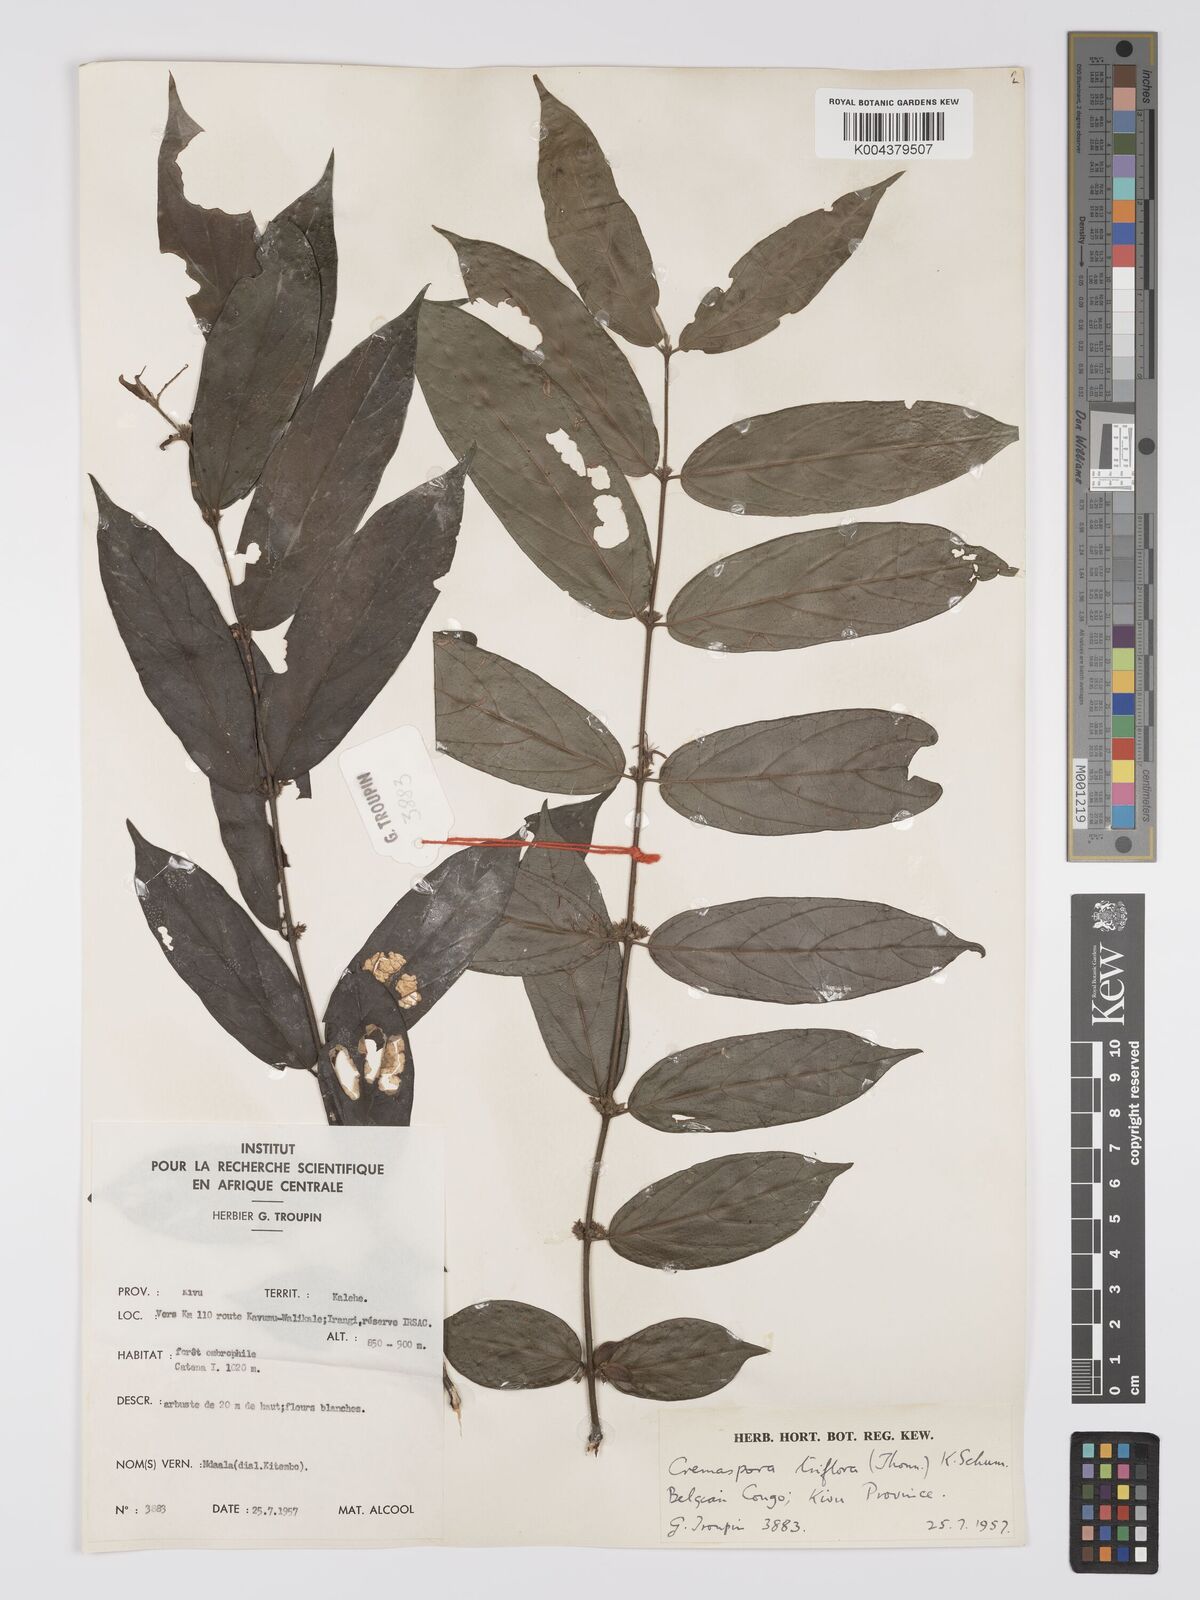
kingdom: Plantae
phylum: Tracheophyta
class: Magnoliopsida
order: Gentianales
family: Rubiaceae
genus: Cremaspora
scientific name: Cremaspora triflora
